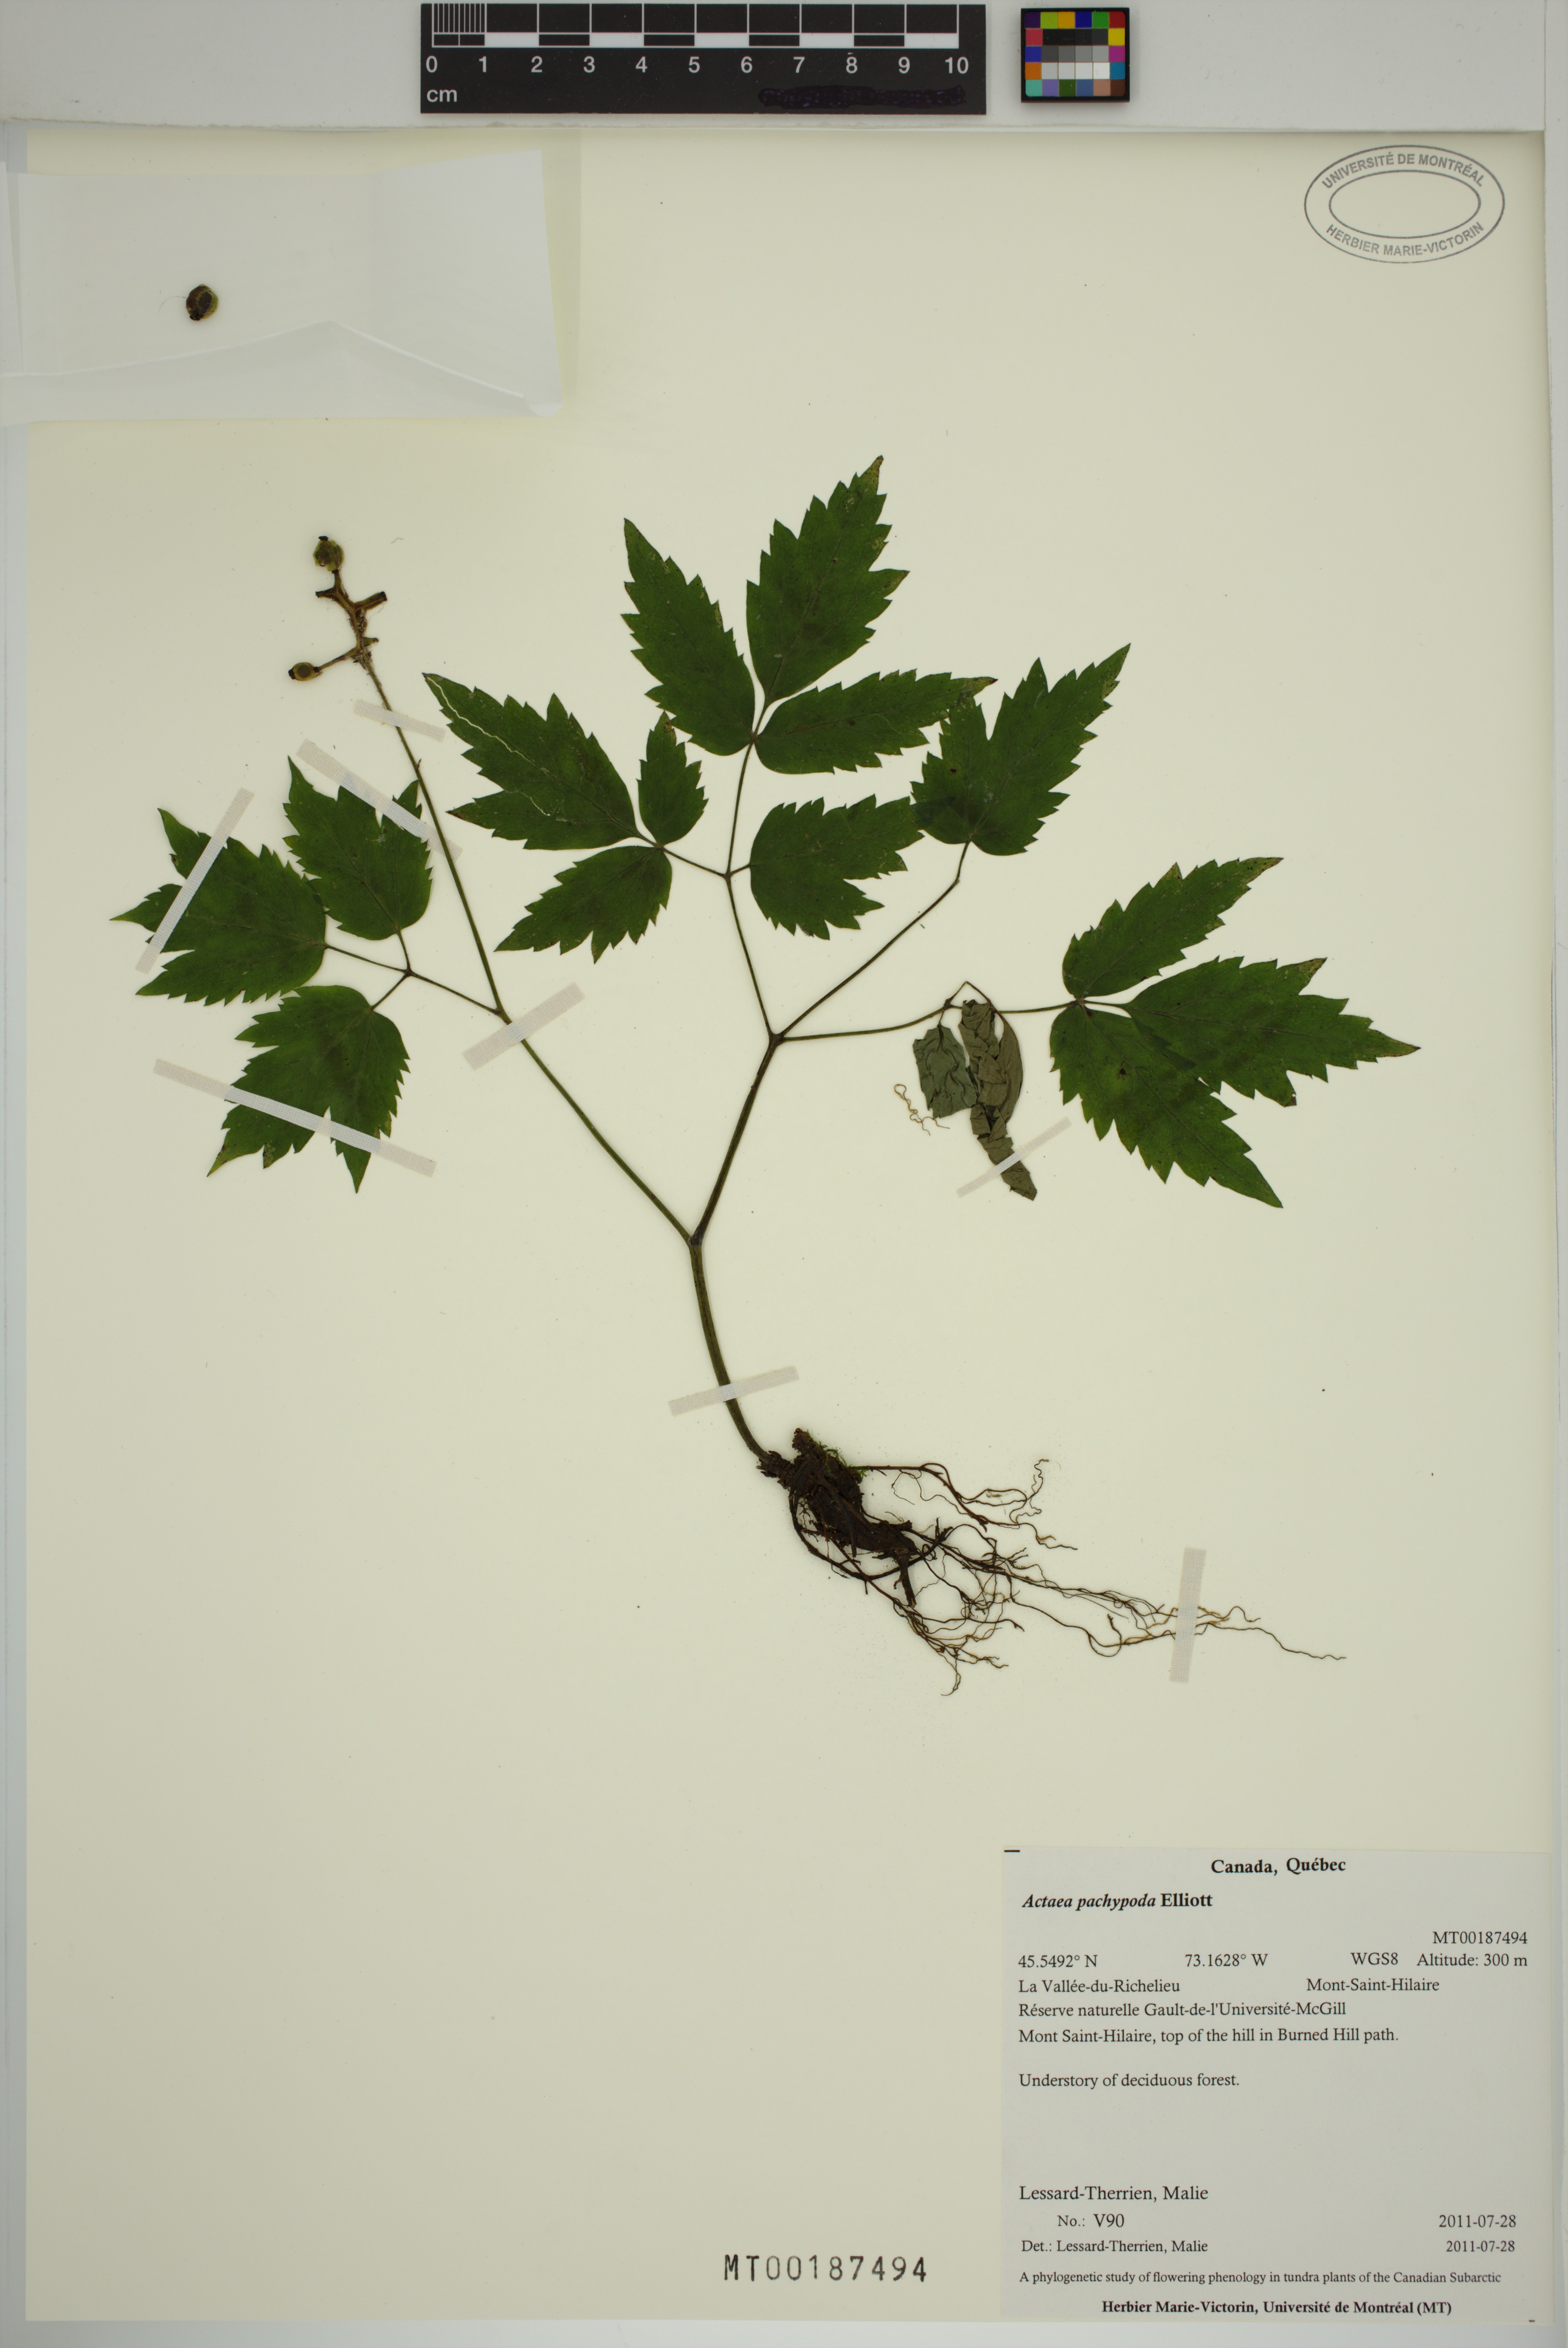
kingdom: Plantae
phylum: Tracheophyta
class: Magnoliopsida
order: Ranunculales
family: Ranunculaceae
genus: Actaea
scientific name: Actaea pachypoda
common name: Doll's-eyes
